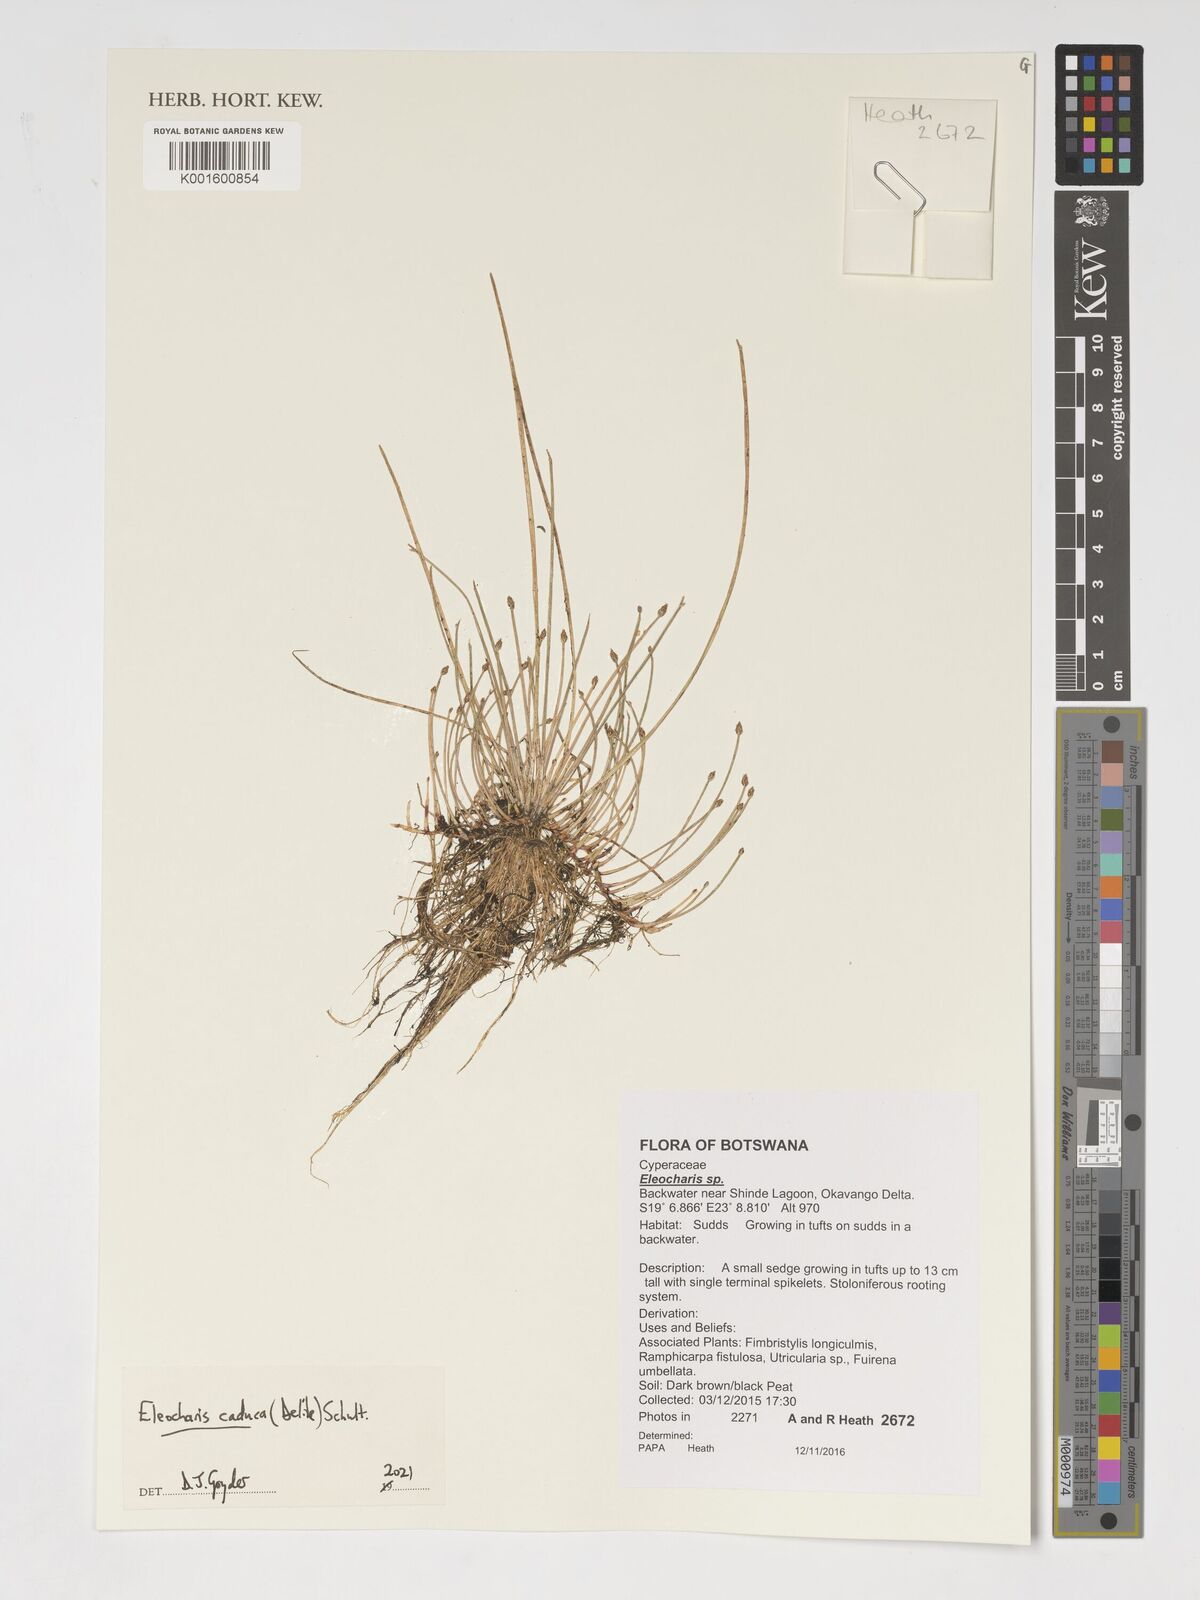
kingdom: Plantae
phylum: Tracheophyta
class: Liliopsida
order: Poales
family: Cyperaceae
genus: Eleocharis
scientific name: Eleocharis caduca
